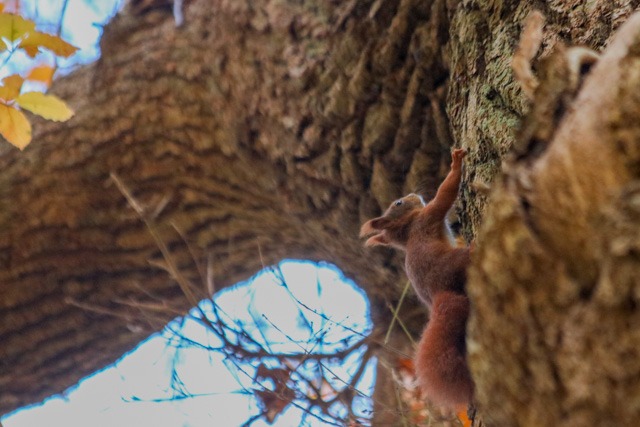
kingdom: Animalia
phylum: Chordata
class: Mammalia
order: Rodentia
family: Sciuridae
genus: Sciurus
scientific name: Sciurus vulgaris
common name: Egern
